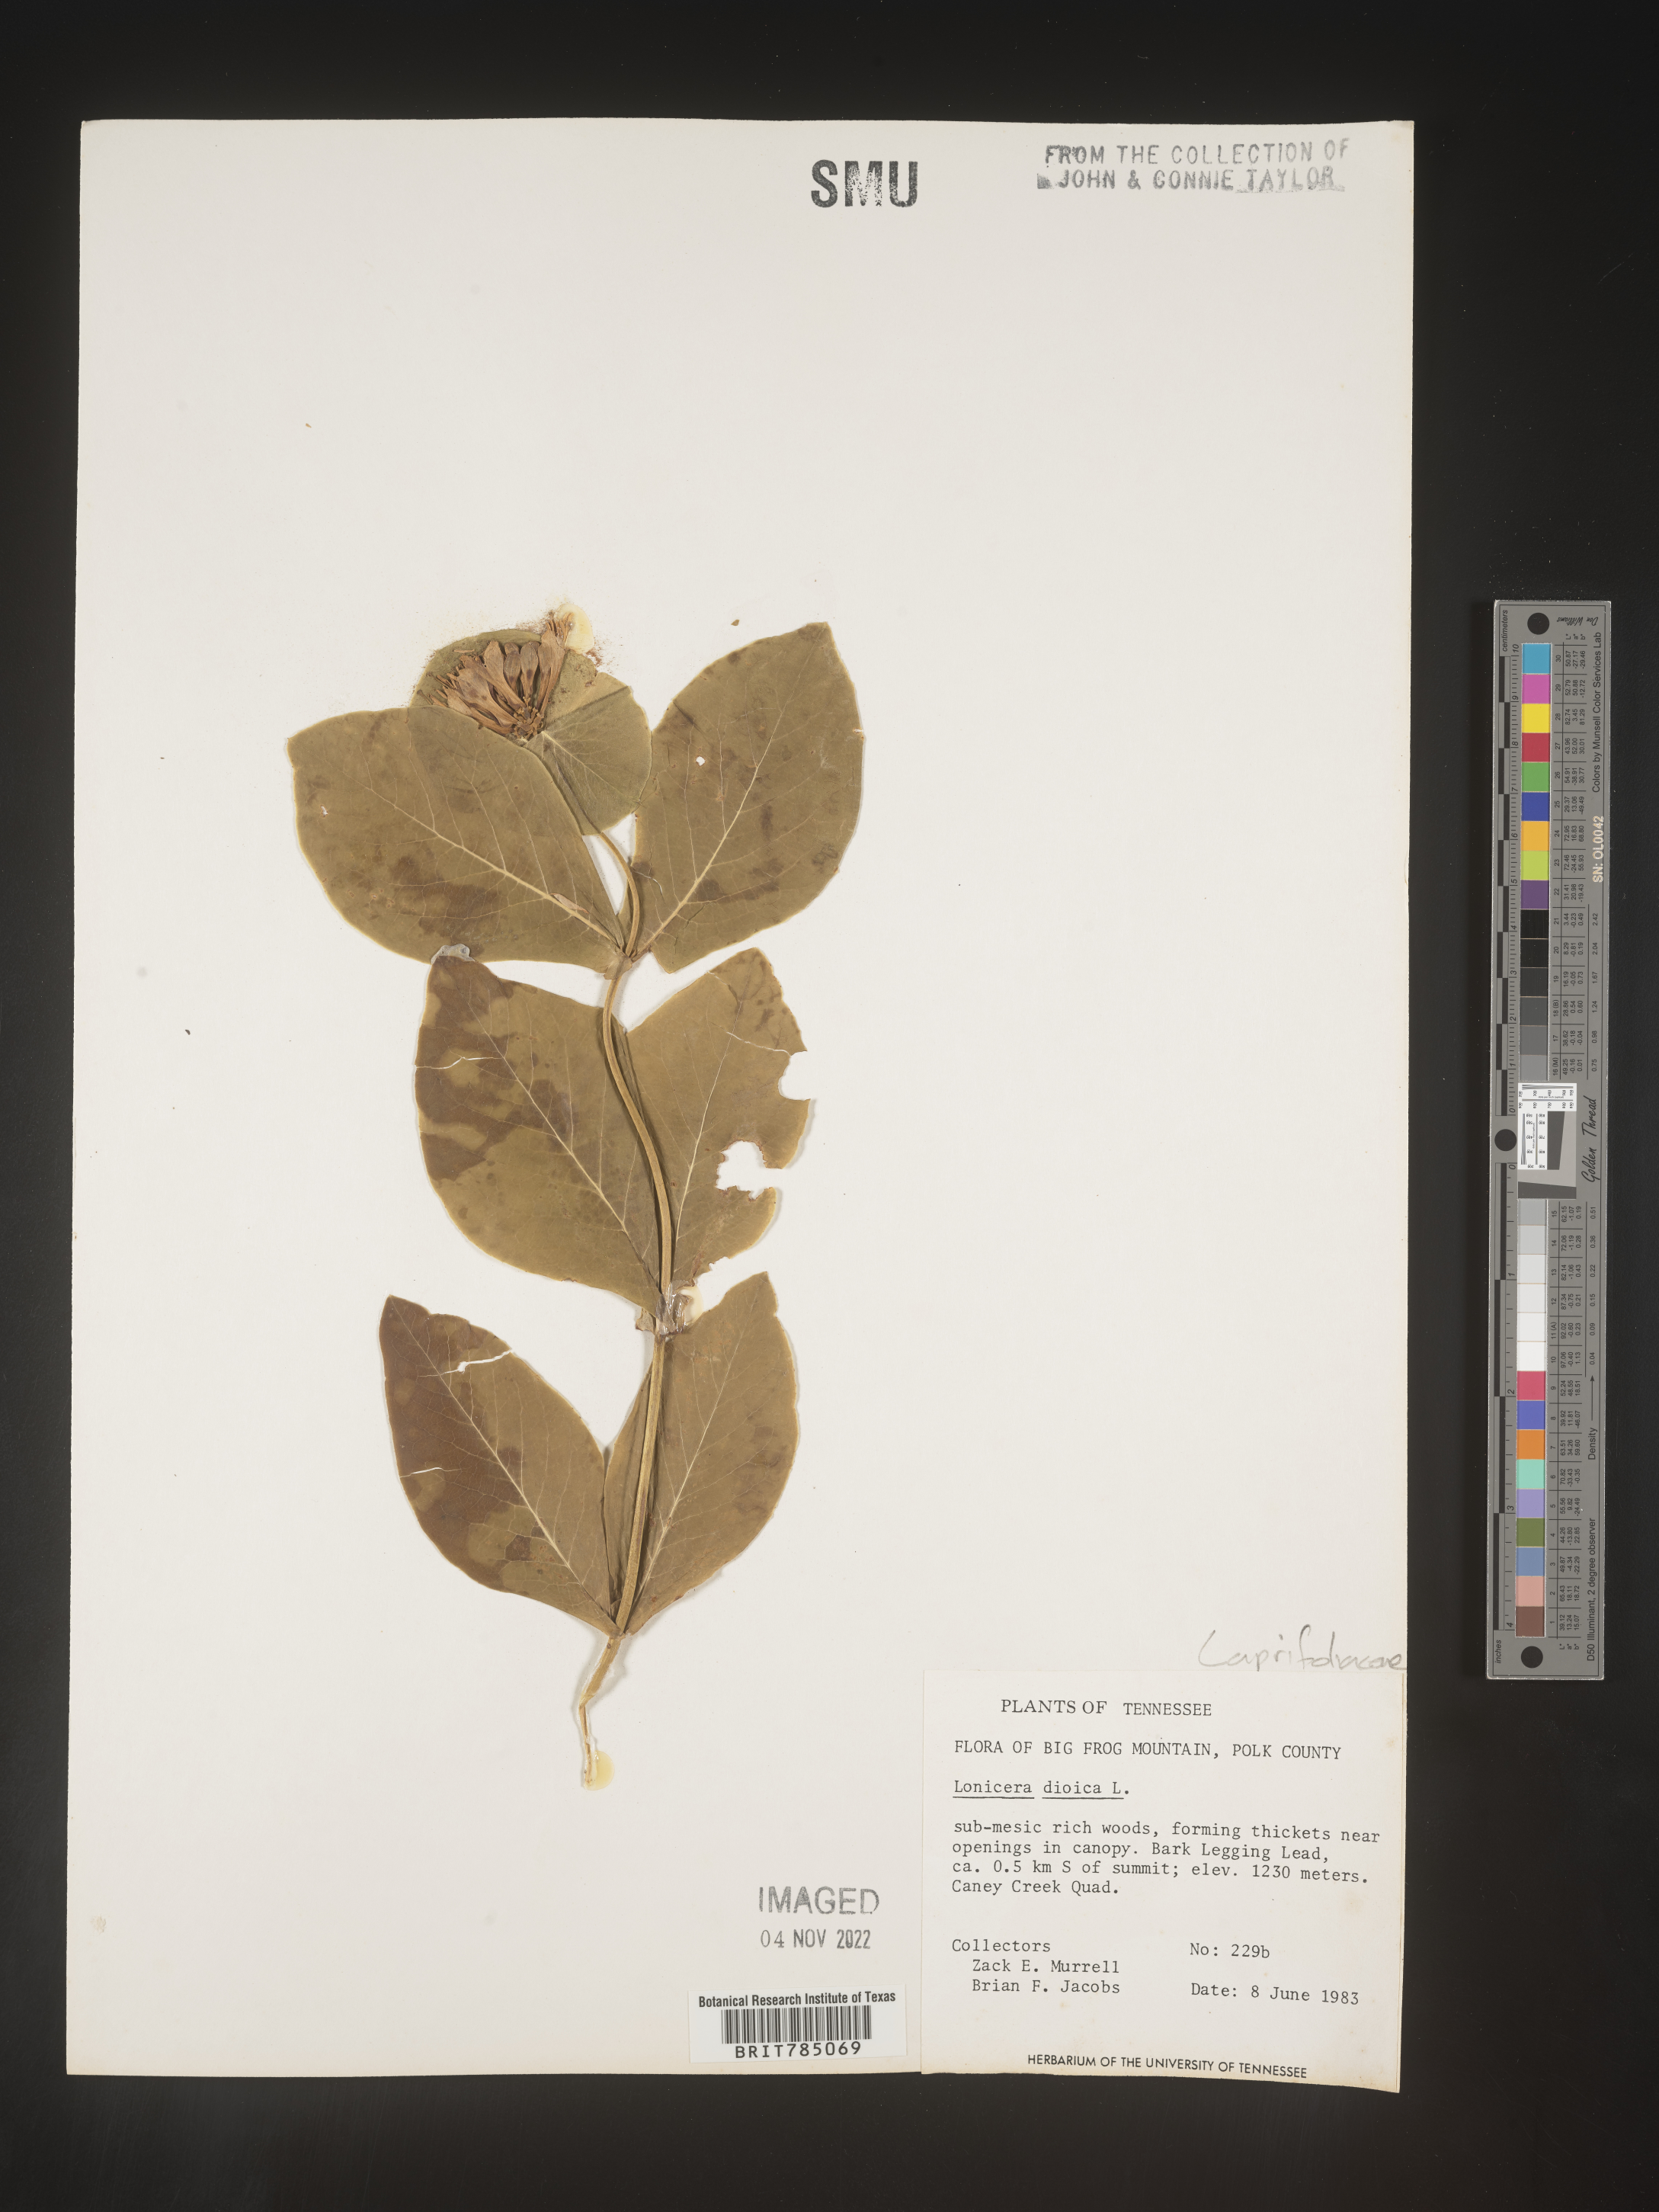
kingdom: Plantae
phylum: Tracheophyta
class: Magnoliopsida
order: Dipsacales
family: Caprifoliaceae
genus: Lonicera
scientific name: Lonicera dioica
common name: Limber honeysuckle
